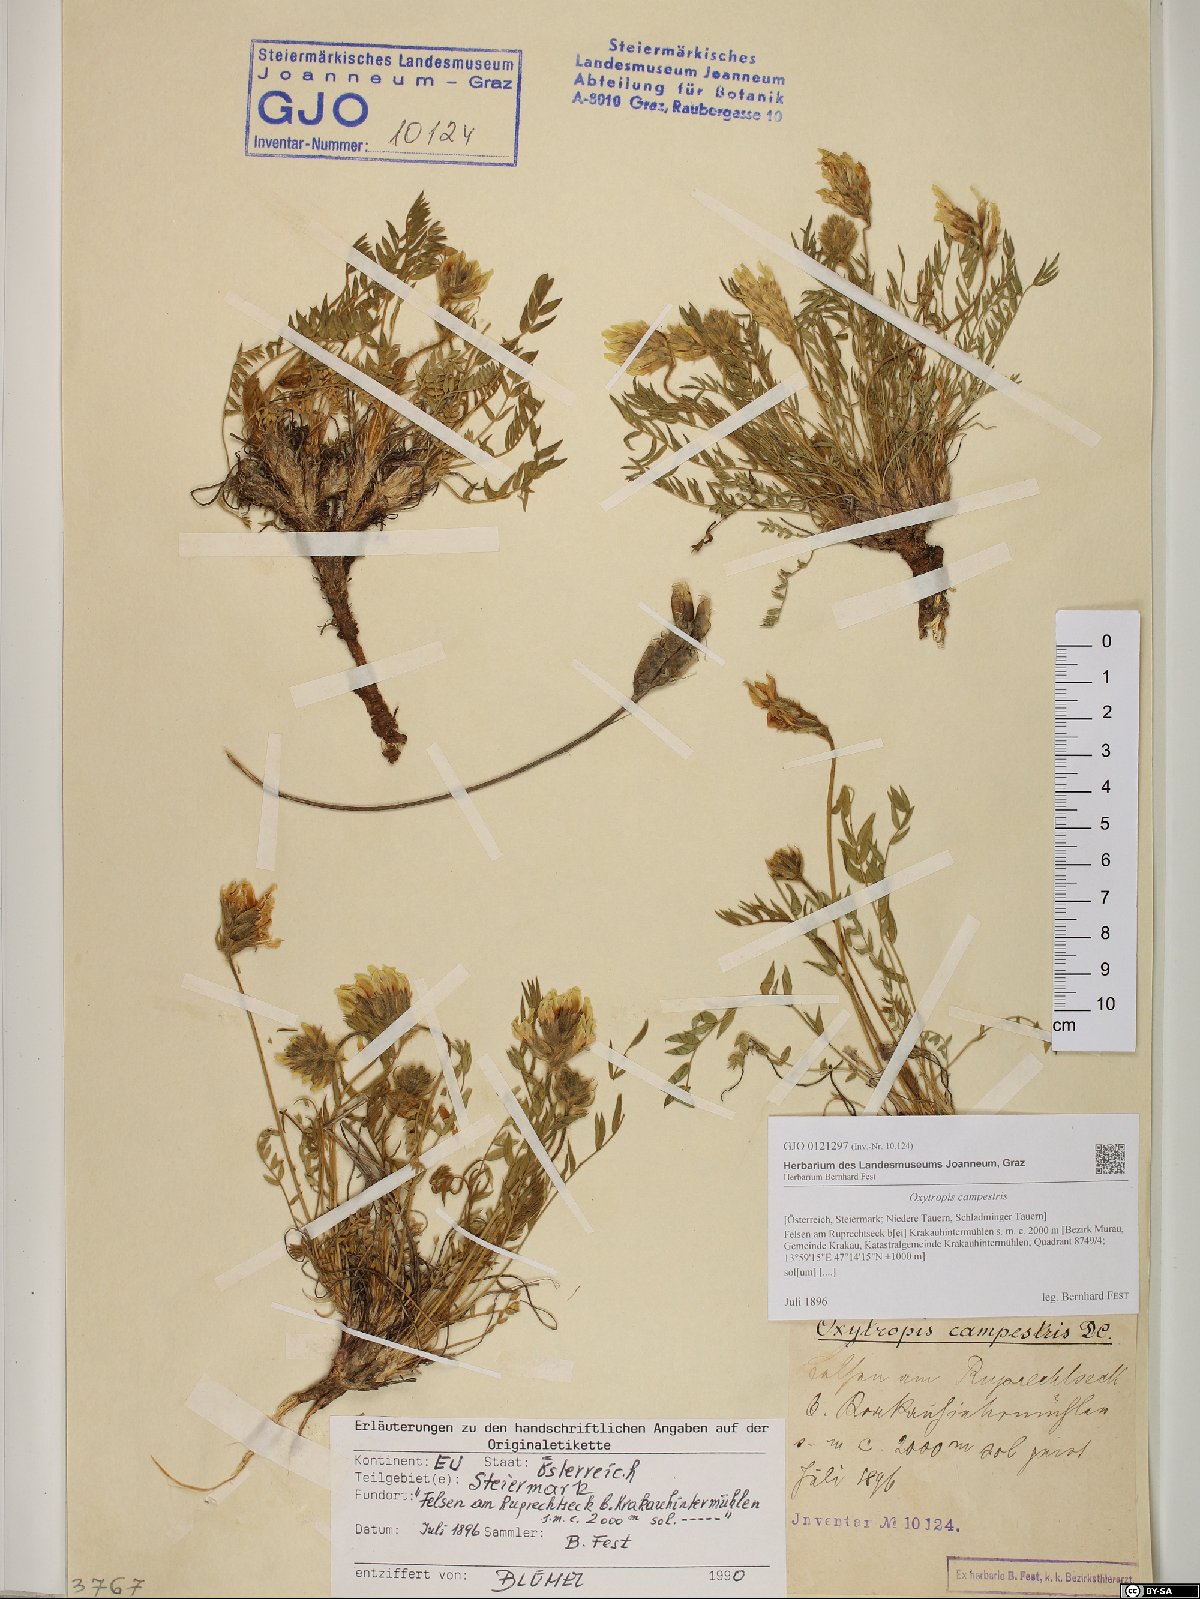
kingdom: Plantae
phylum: Tracheophyta
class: Magnoliopsida
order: Fabales
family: Fabaceae
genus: Oxytropis
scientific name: Oxytropis campestris
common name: Field locoweed
